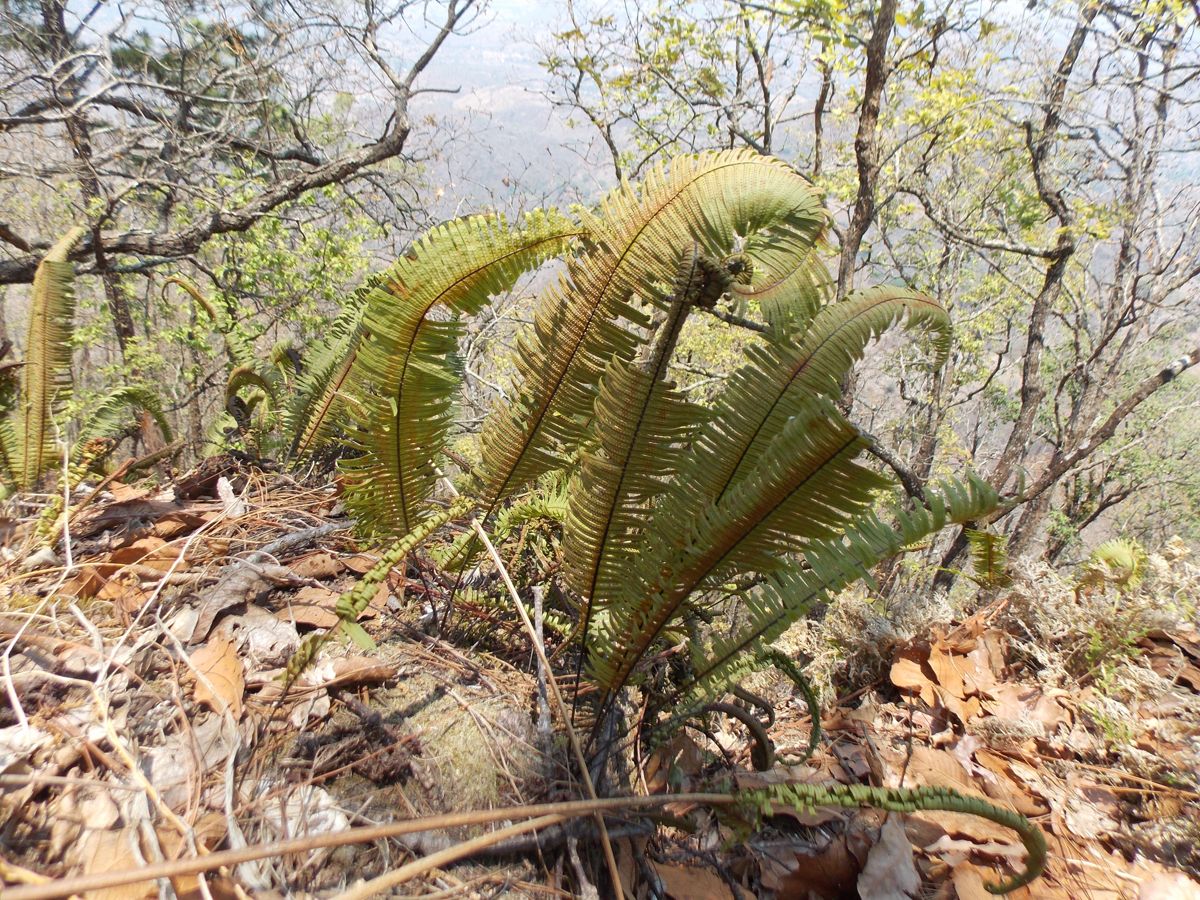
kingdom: Plantae
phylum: Tracheophyta
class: Polypodiopsida
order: Polypodiales
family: Polypodiaceae
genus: Pecluma
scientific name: Pecluma plumula
